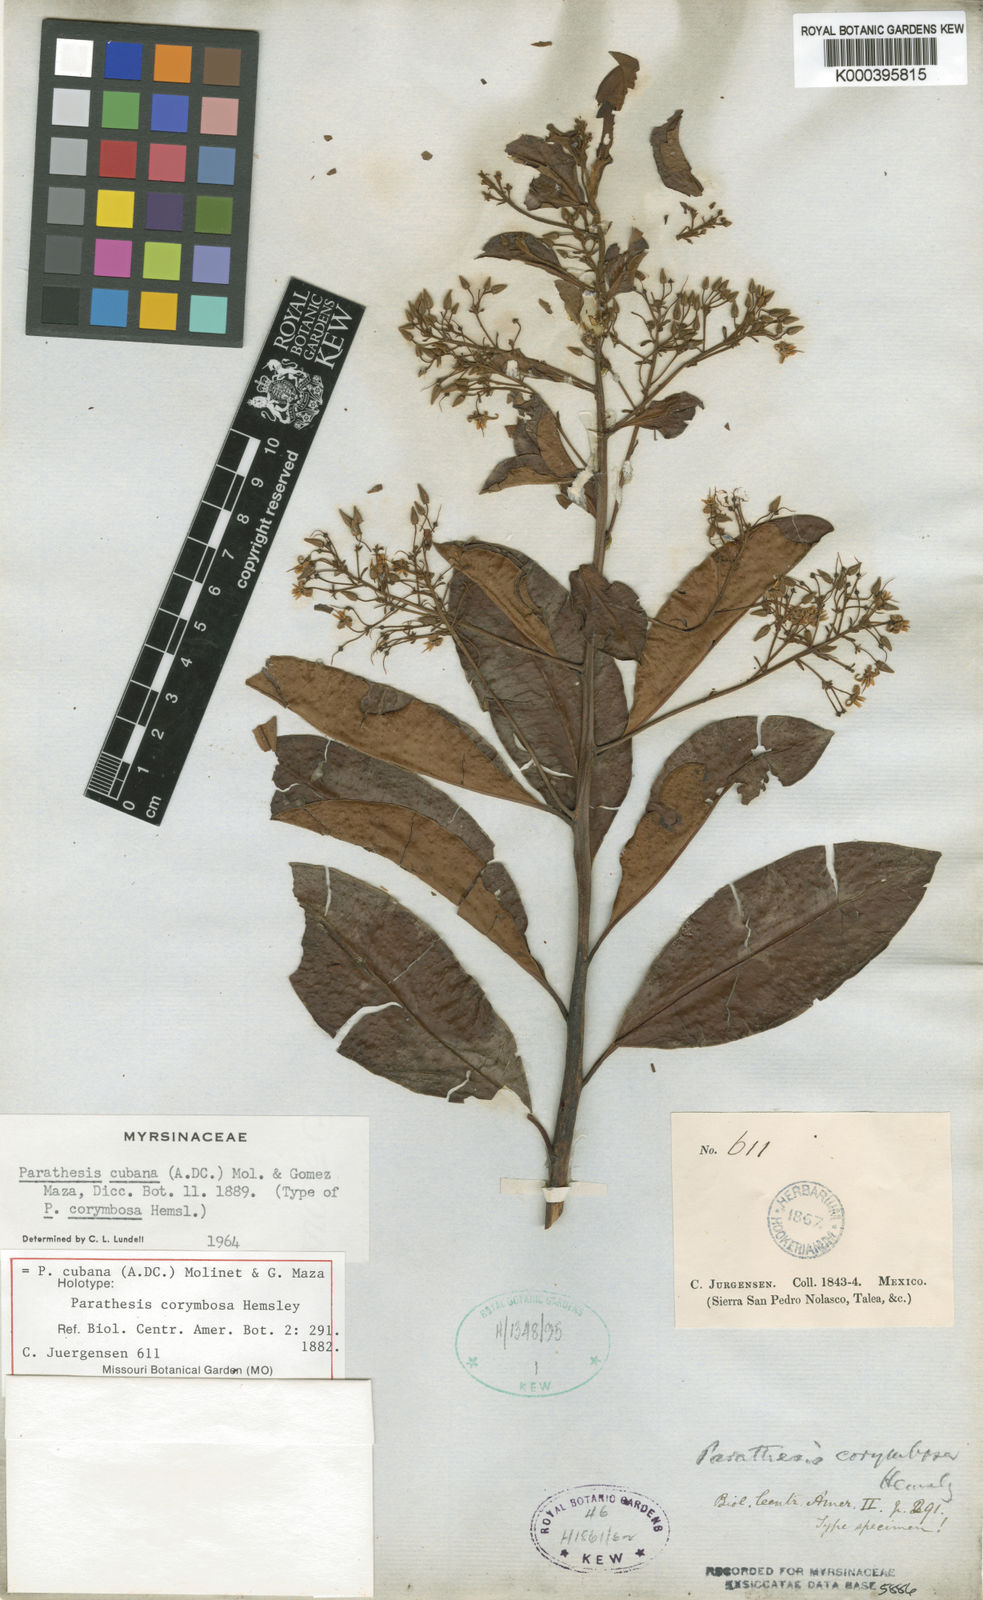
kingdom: Plantae
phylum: Tracheophyta
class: Magnoliopsida
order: Ericales
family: Primulaceae
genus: Parathesis
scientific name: Parathesis
